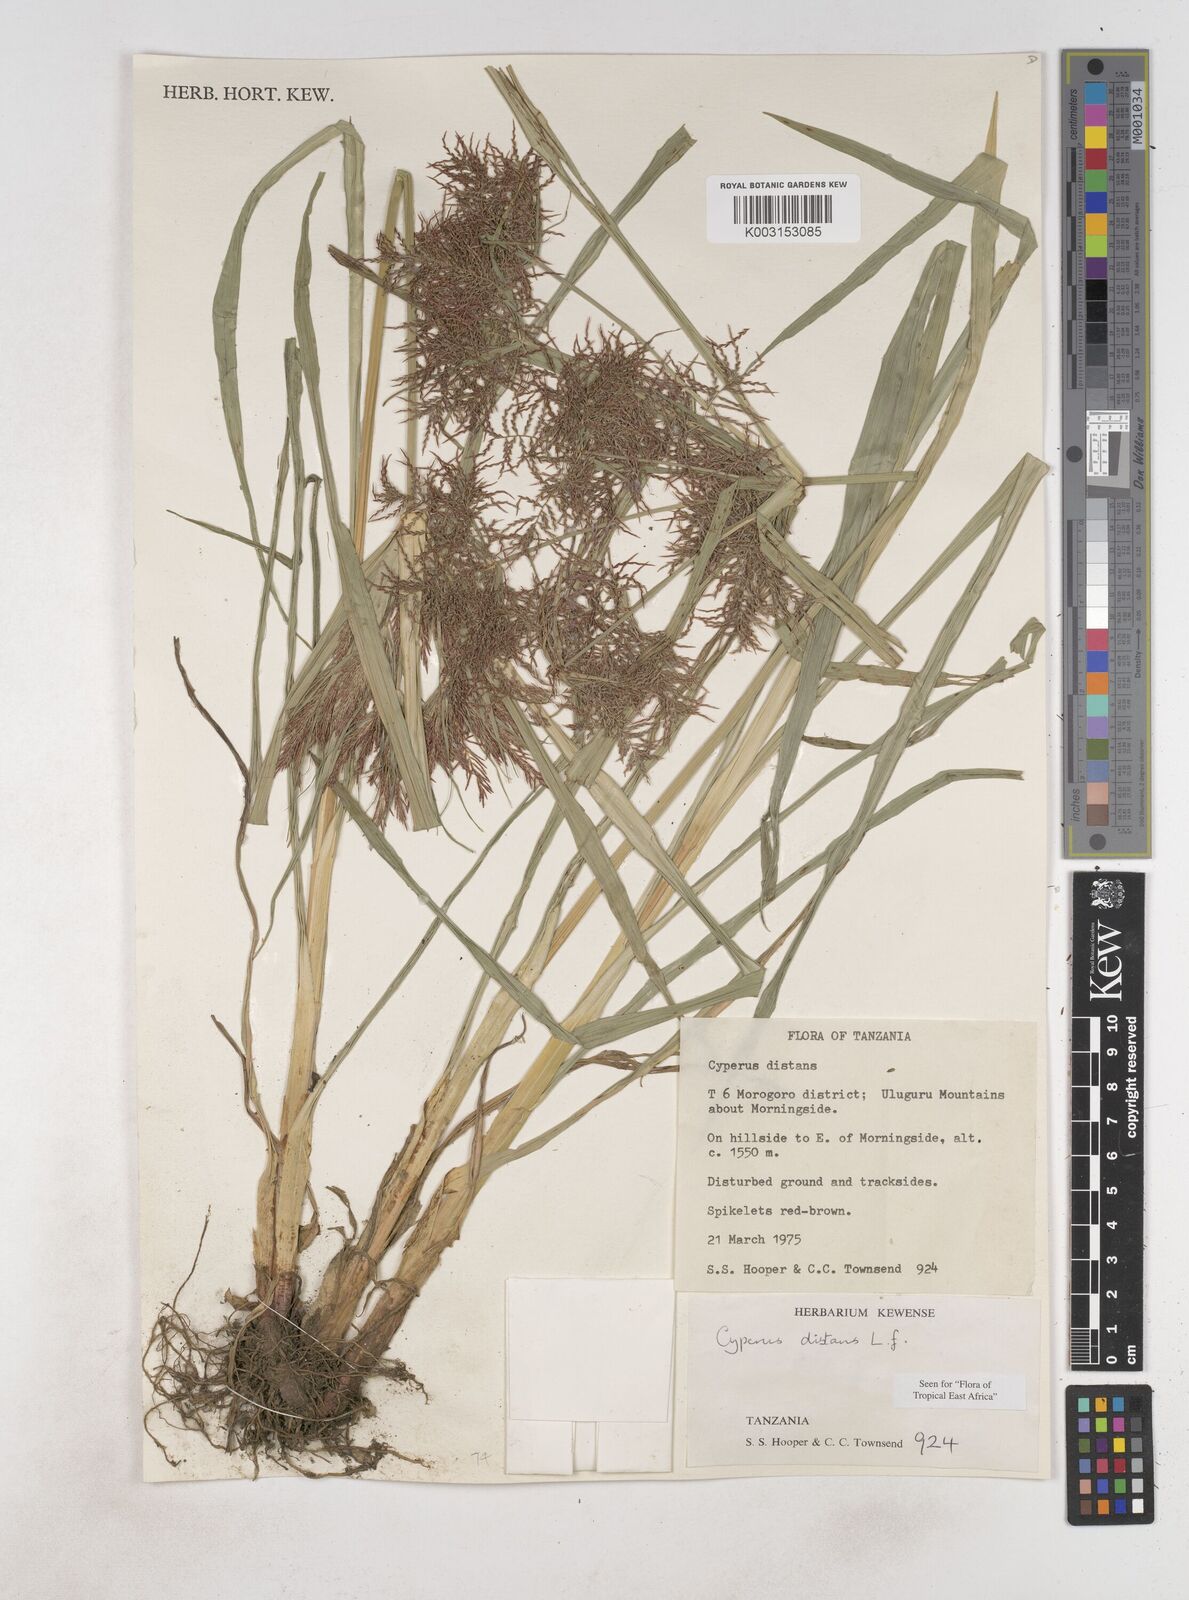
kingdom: Plantae
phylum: Tracheophyta
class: Liliopsida
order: Poales
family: Cyperaceae
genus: Cyperus
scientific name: Cyperus distans
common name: Slender cyperus
